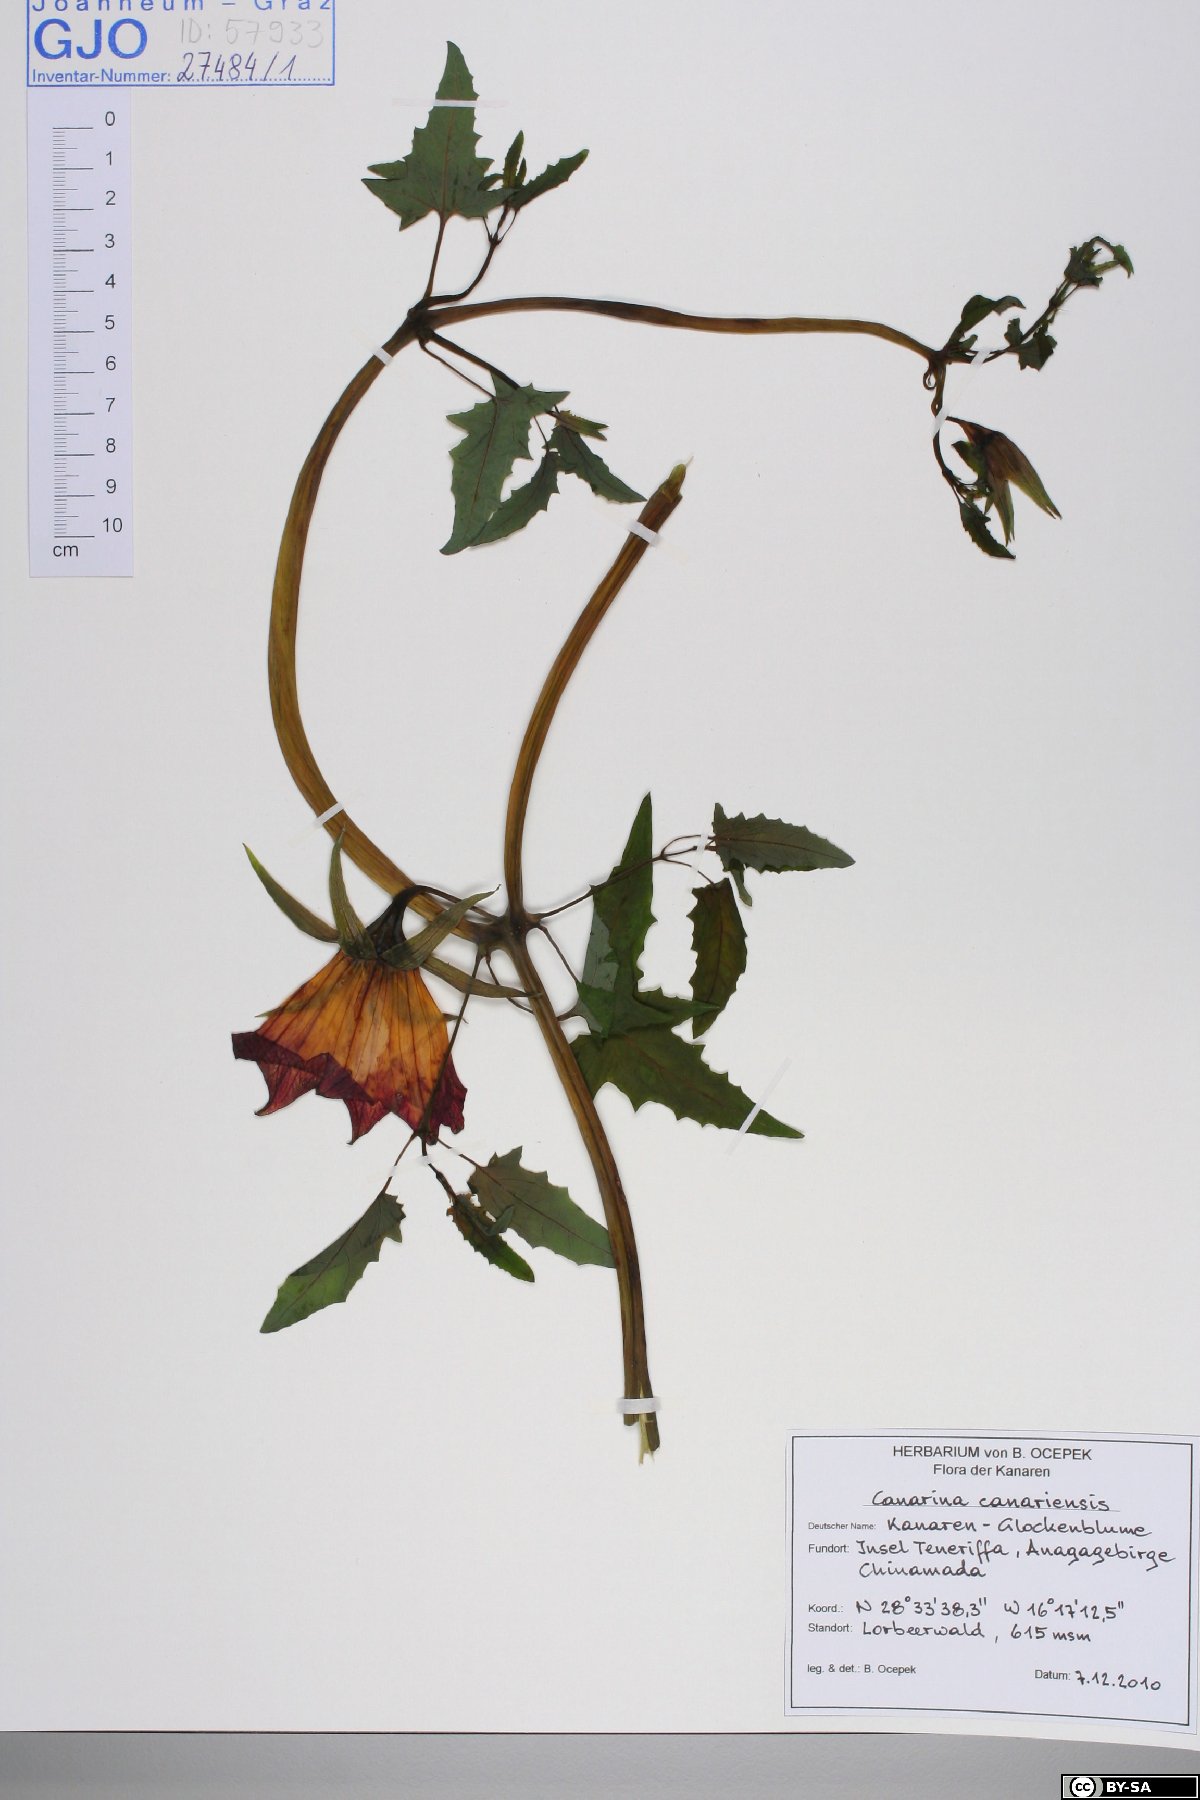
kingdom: Plantae
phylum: Tracheophyta
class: Magnoliopsida
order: Asterales
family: Campanulaceae
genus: Canarina
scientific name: Canarina canariensis
